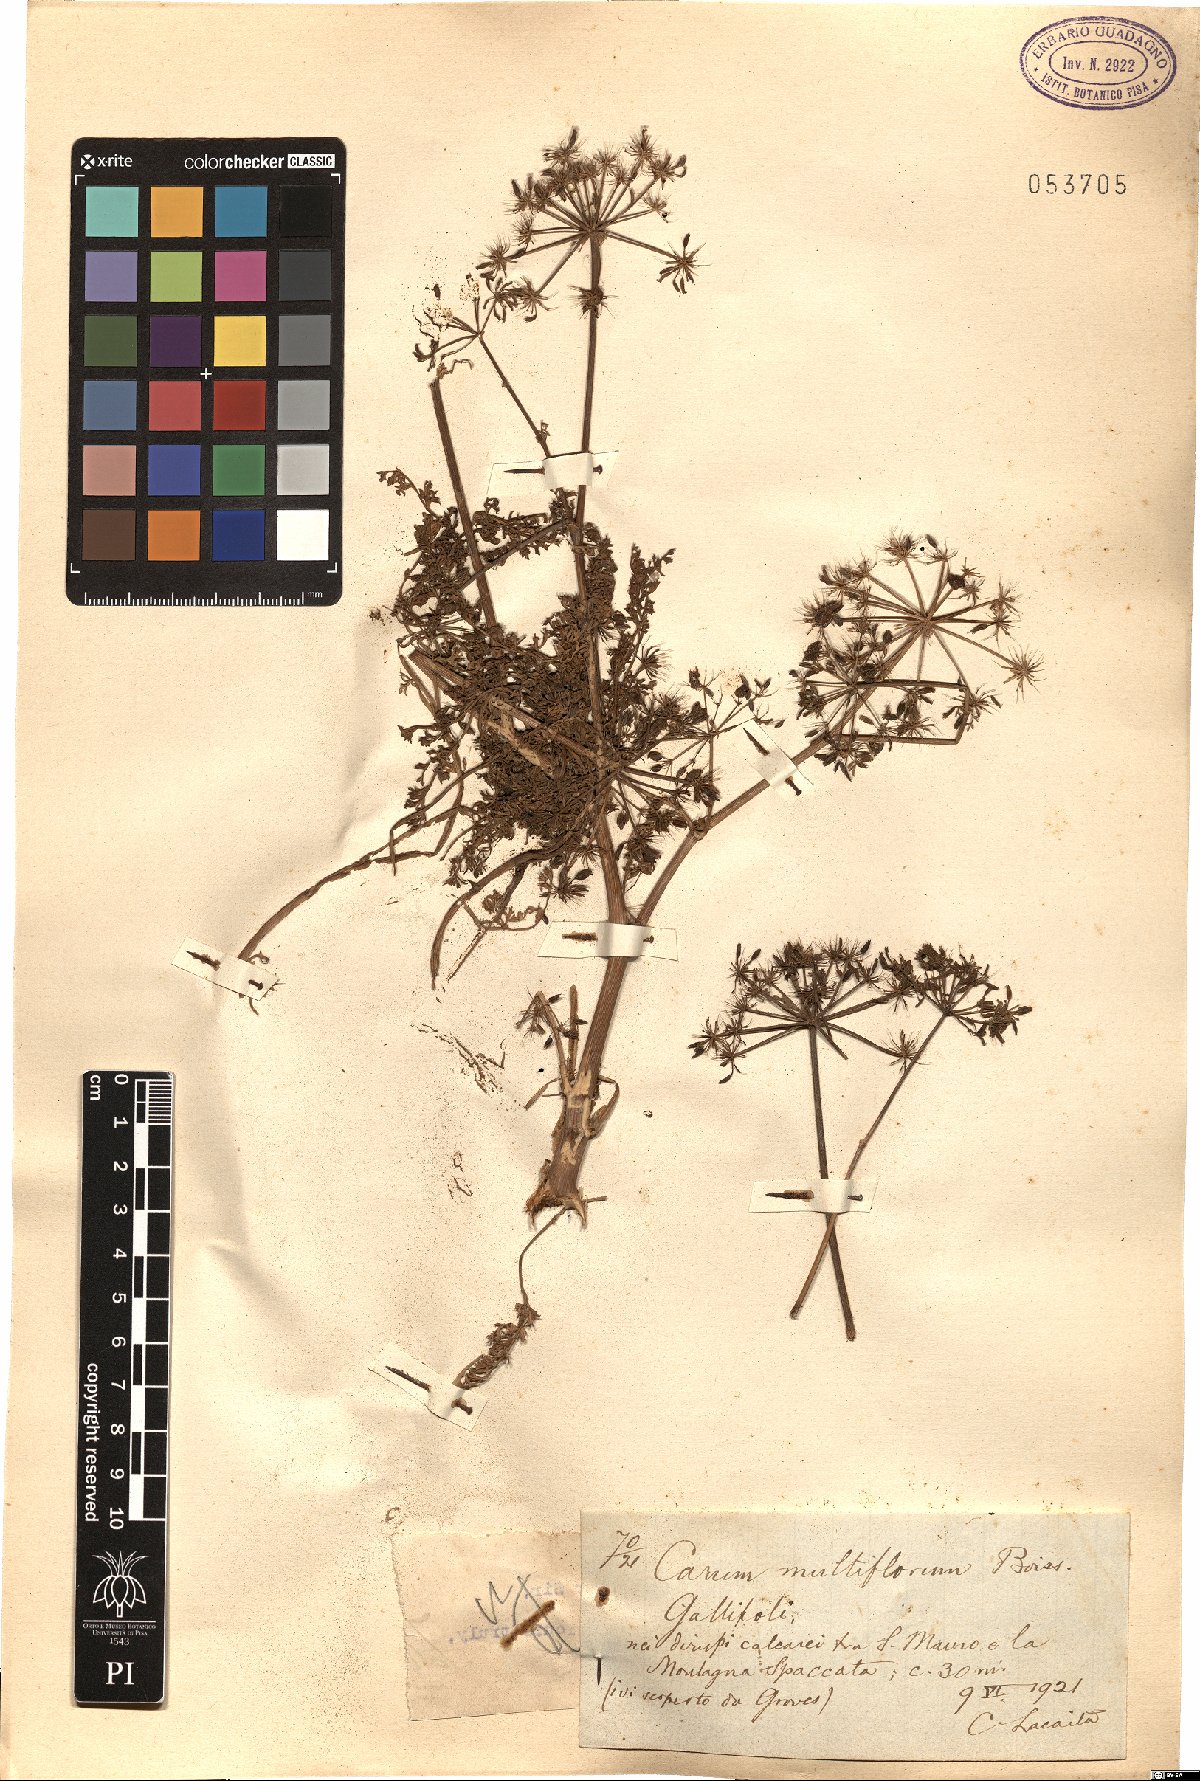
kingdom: Plantae
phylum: Tracheophyta
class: Magnoliopsida
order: Apiales
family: Apiaceae
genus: Hellenocarum
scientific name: Hellenocarum multiflorum
